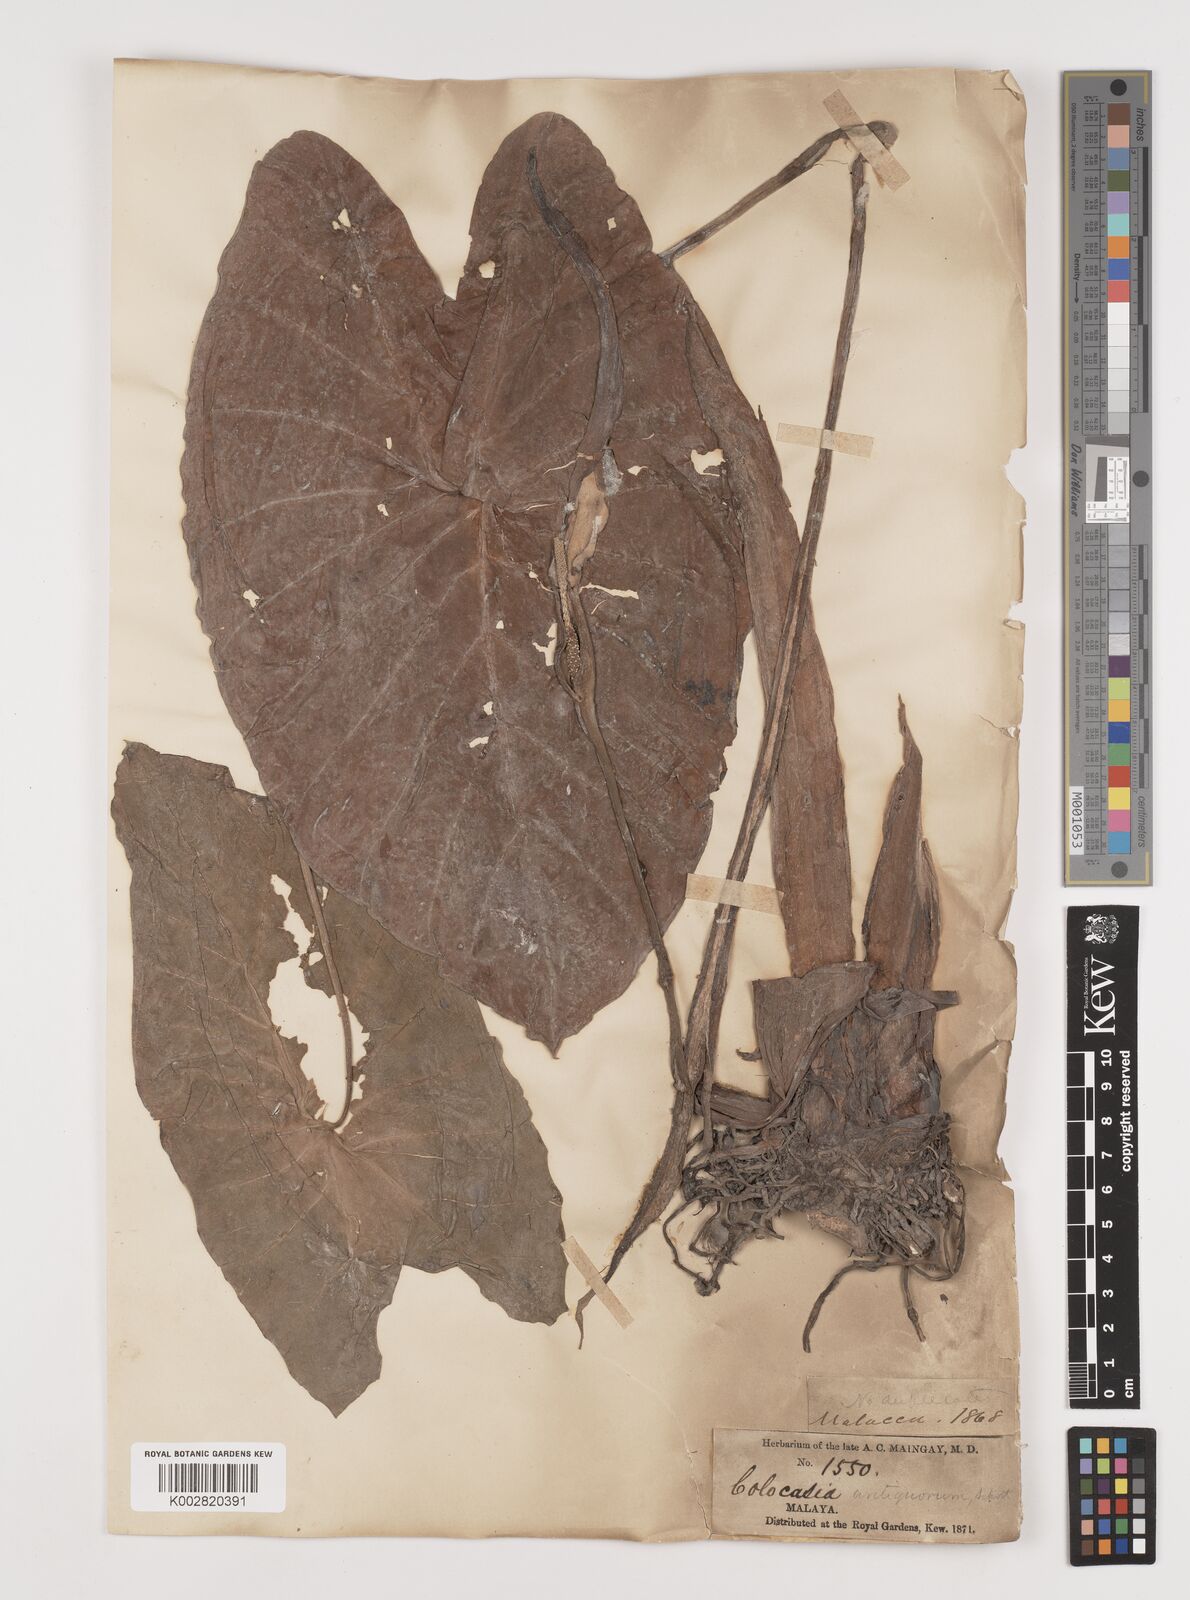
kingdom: Plantae
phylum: Tracheophyta
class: Liliopsida
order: Alismatales
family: Araceae
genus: Colocasia
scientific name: Colocasia esculenta
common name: Taro
